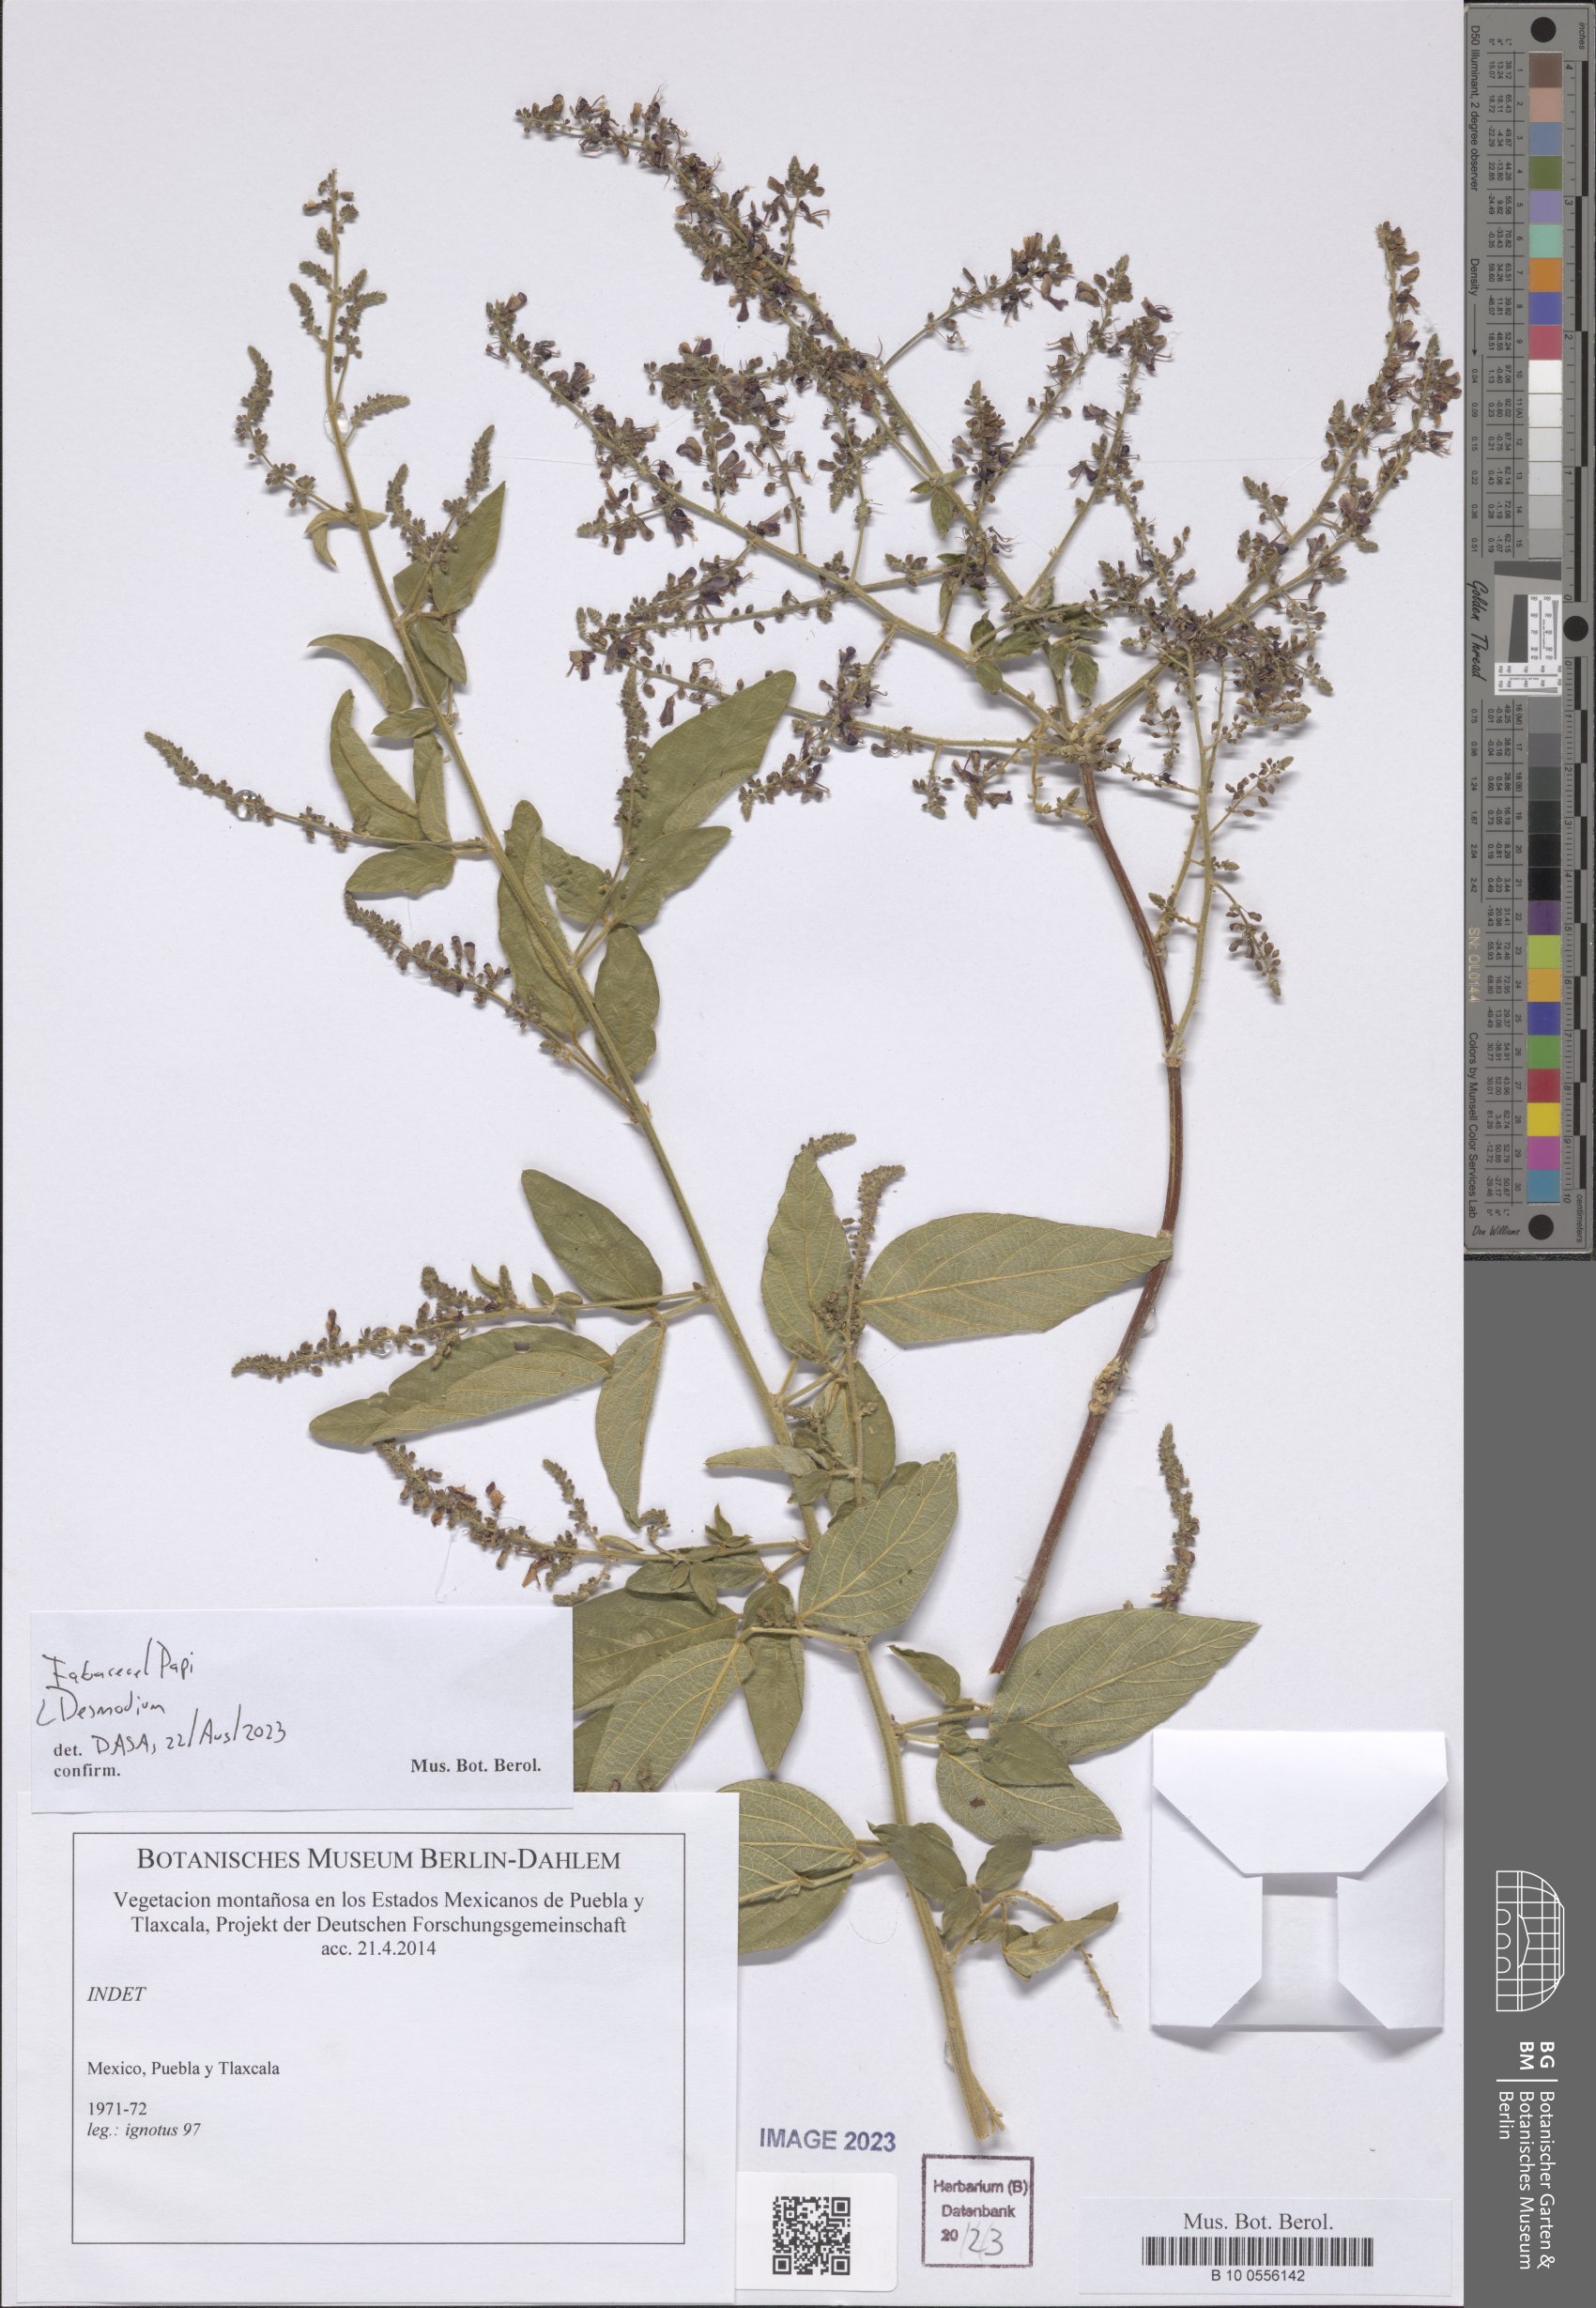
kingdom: Plantae
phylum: Tracheophyta
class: Magnoliopsida
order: Fabales
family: Fabaceae
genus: Desmodium
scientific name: Desmodium
